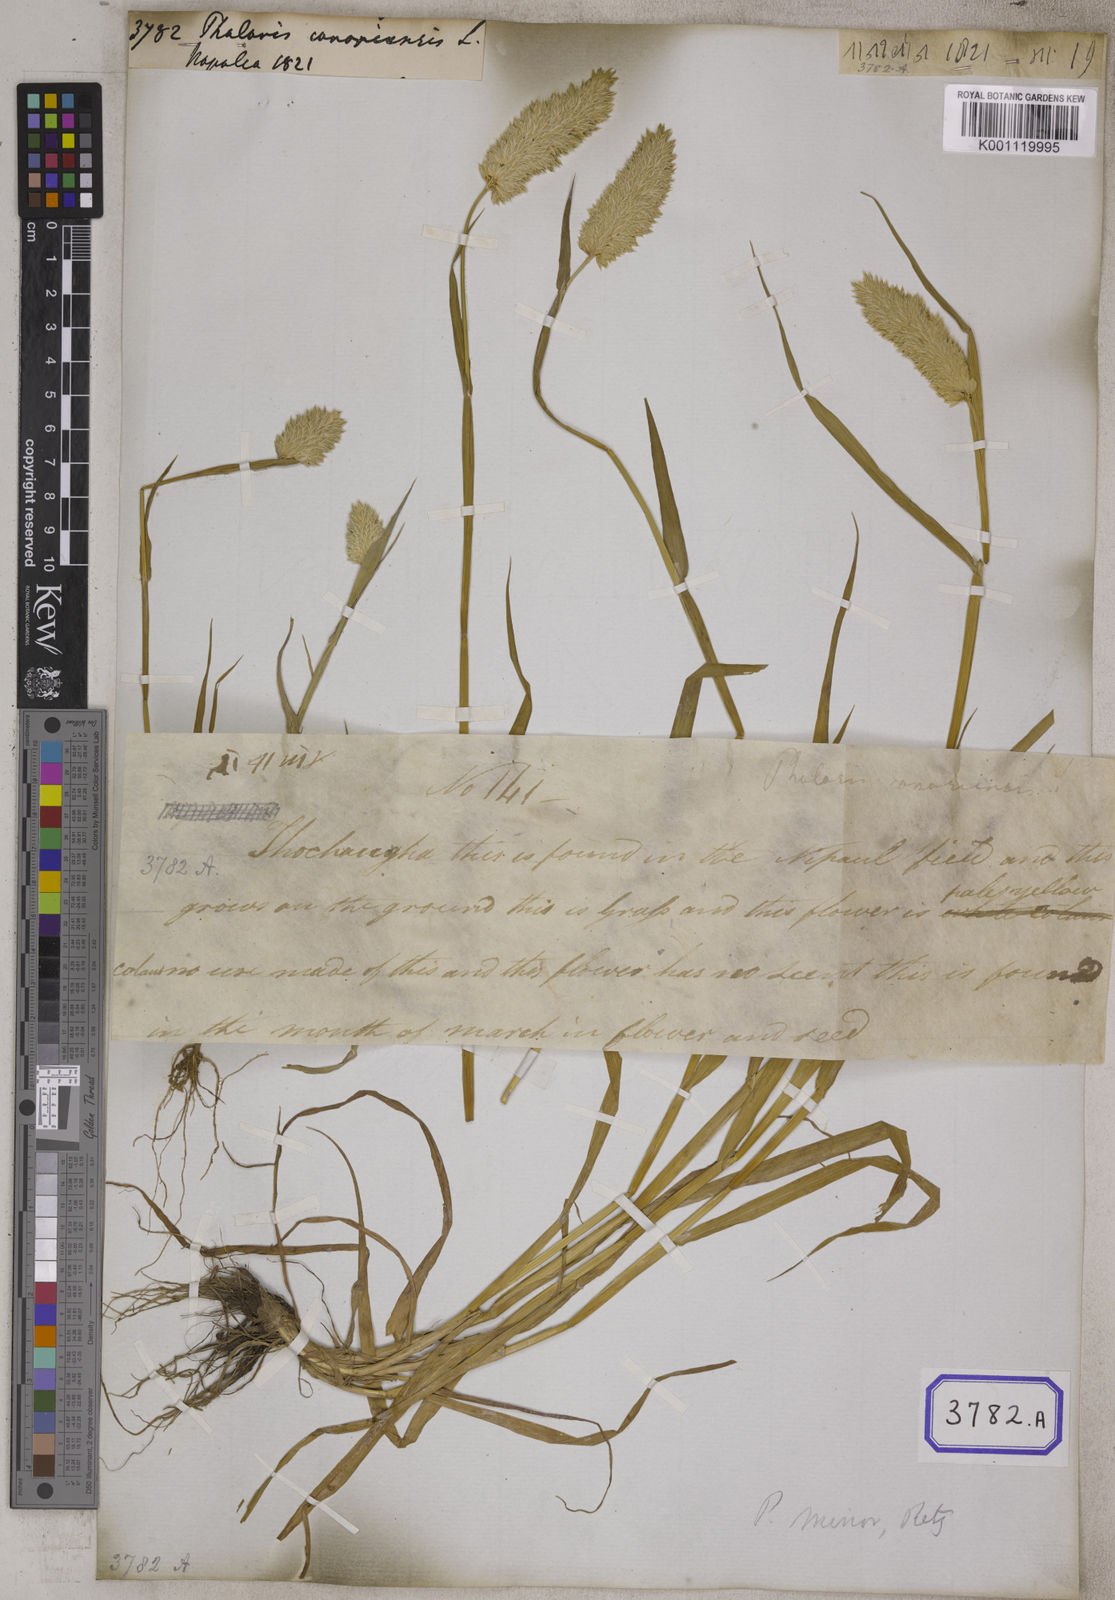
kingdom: Plantae
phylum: Tracheophyta
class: Liliopsida
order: Poales
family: Poaceae
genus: Phalaris
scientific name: Phalaris canariensis
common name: Annual canarygrass
